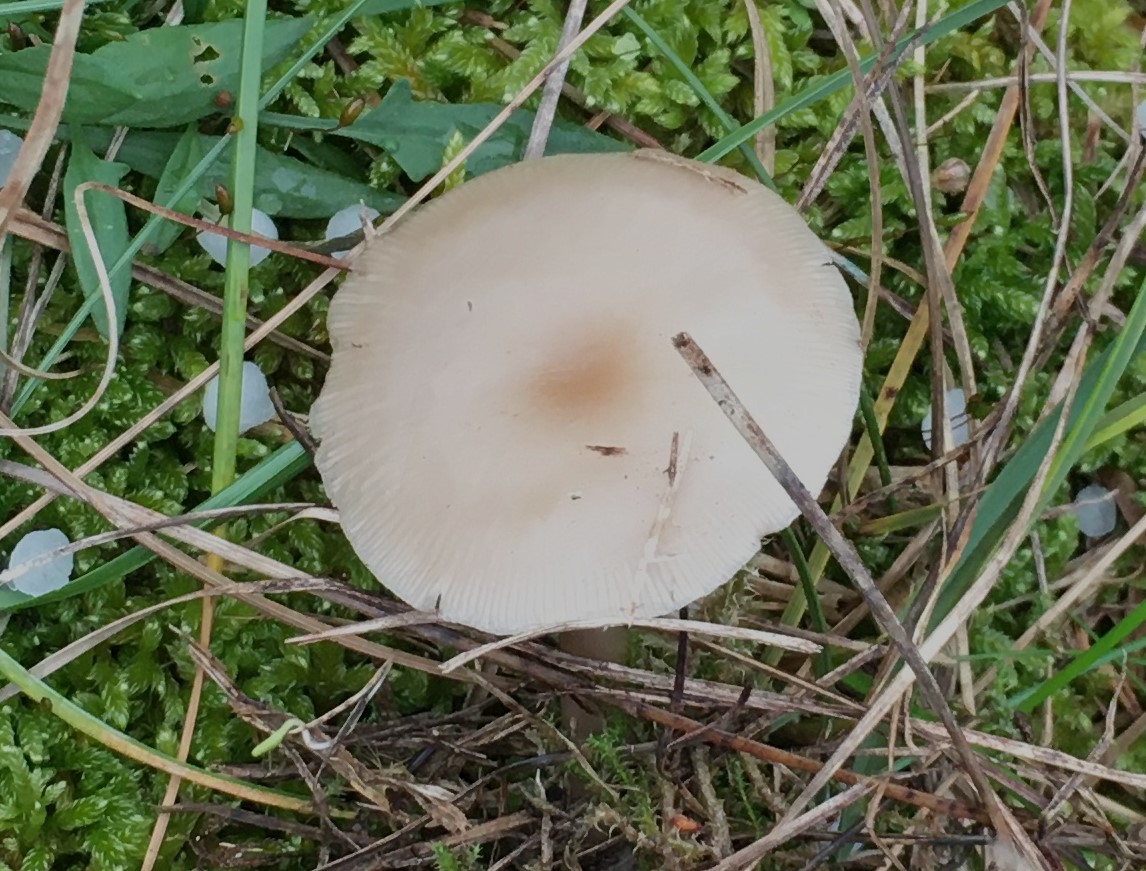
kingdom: Fungi
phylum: Basidiomycota
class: Agaricomycetes
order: Agaricales
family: Tricholomataceae
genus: Clitocybe
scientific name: Clitocybe metachroa
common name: grå tragthat
